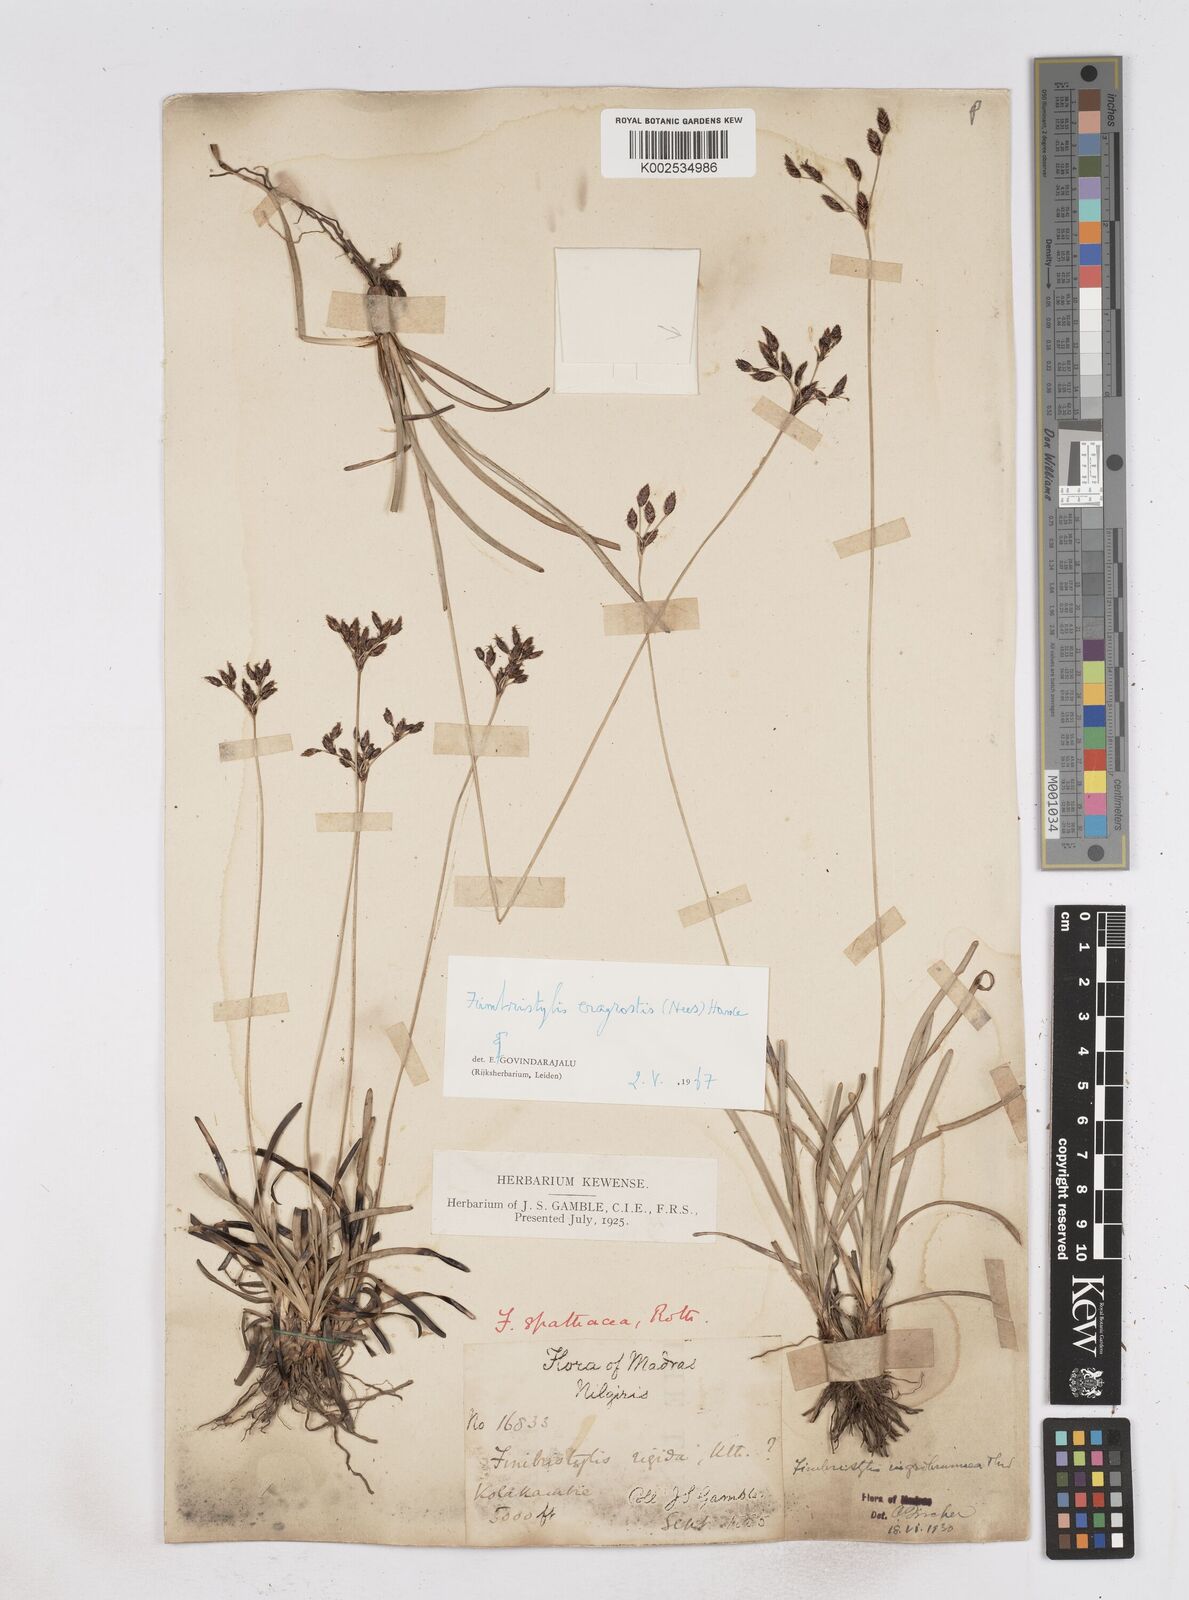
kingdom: Plantae
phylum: Tracheophyta
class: Liliopsida
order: Poales
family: Cyperaceae
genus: Fimbristylis
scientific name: Fimbristylis nigrobrunnea
